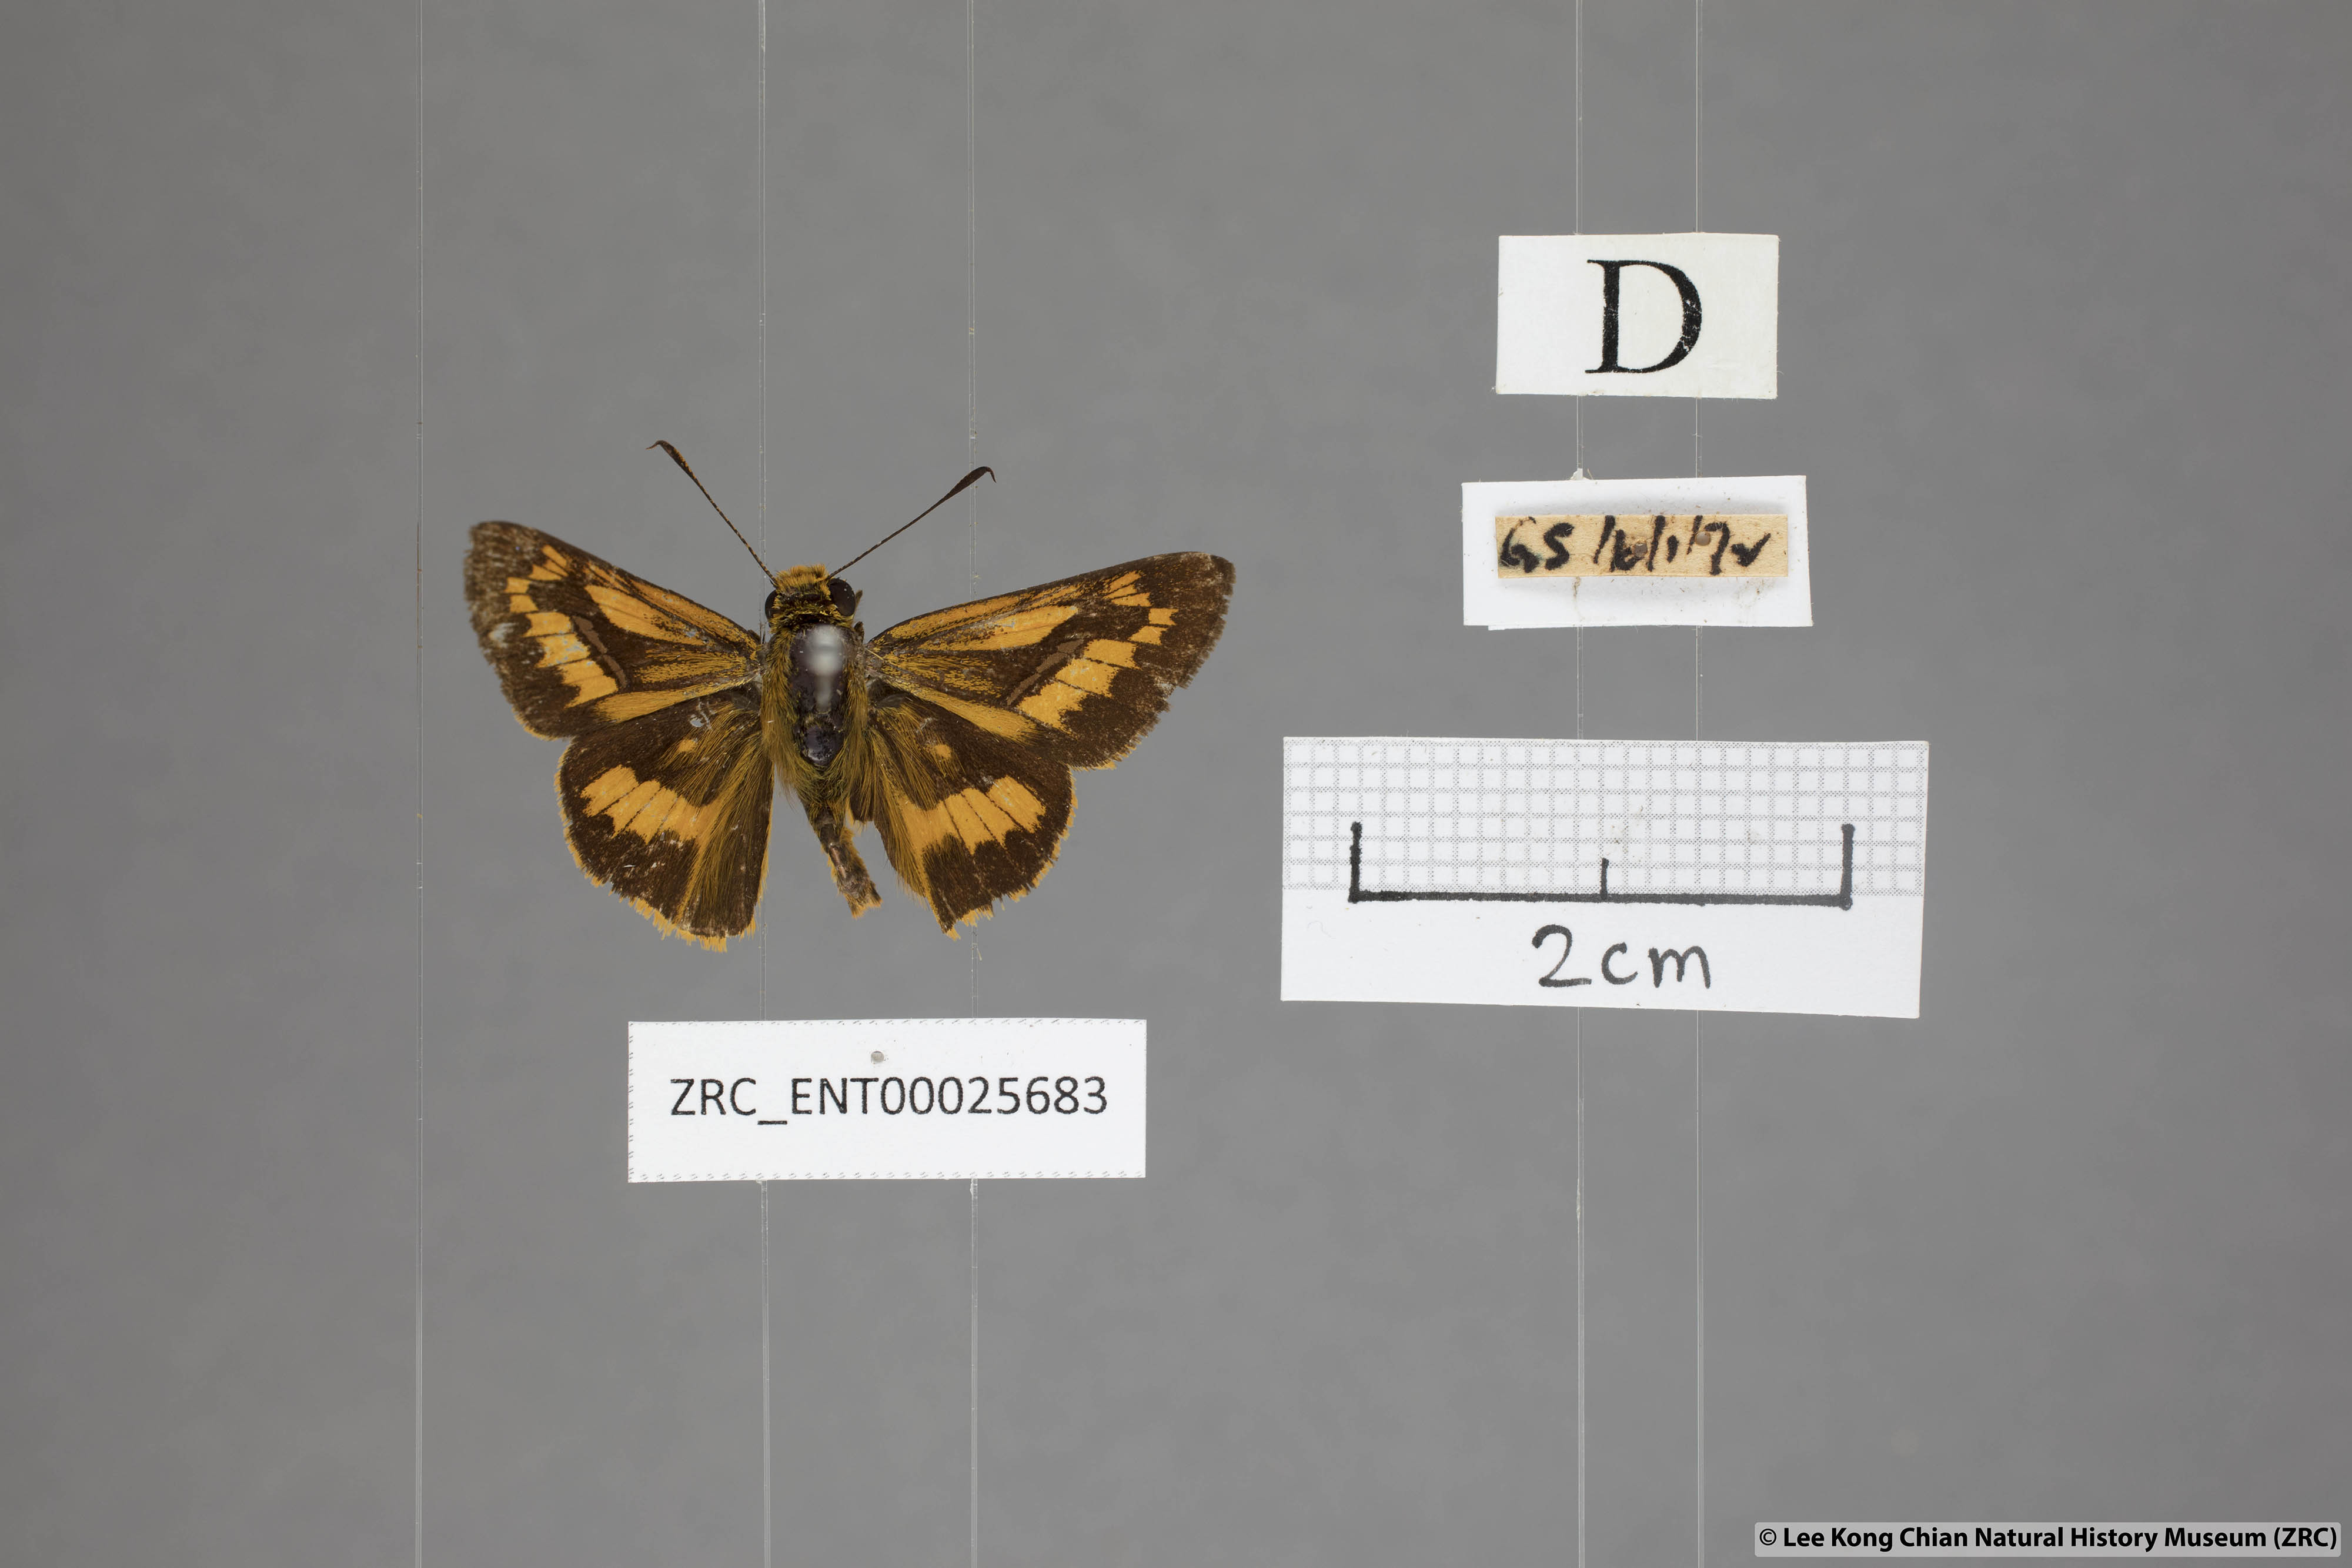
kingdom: Animalia
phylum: Arthropoda
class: Insecta
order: Lepidoptera
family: Hesperiidae
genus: Telicota
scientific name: Telicota ohara
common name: Dark palm dart
